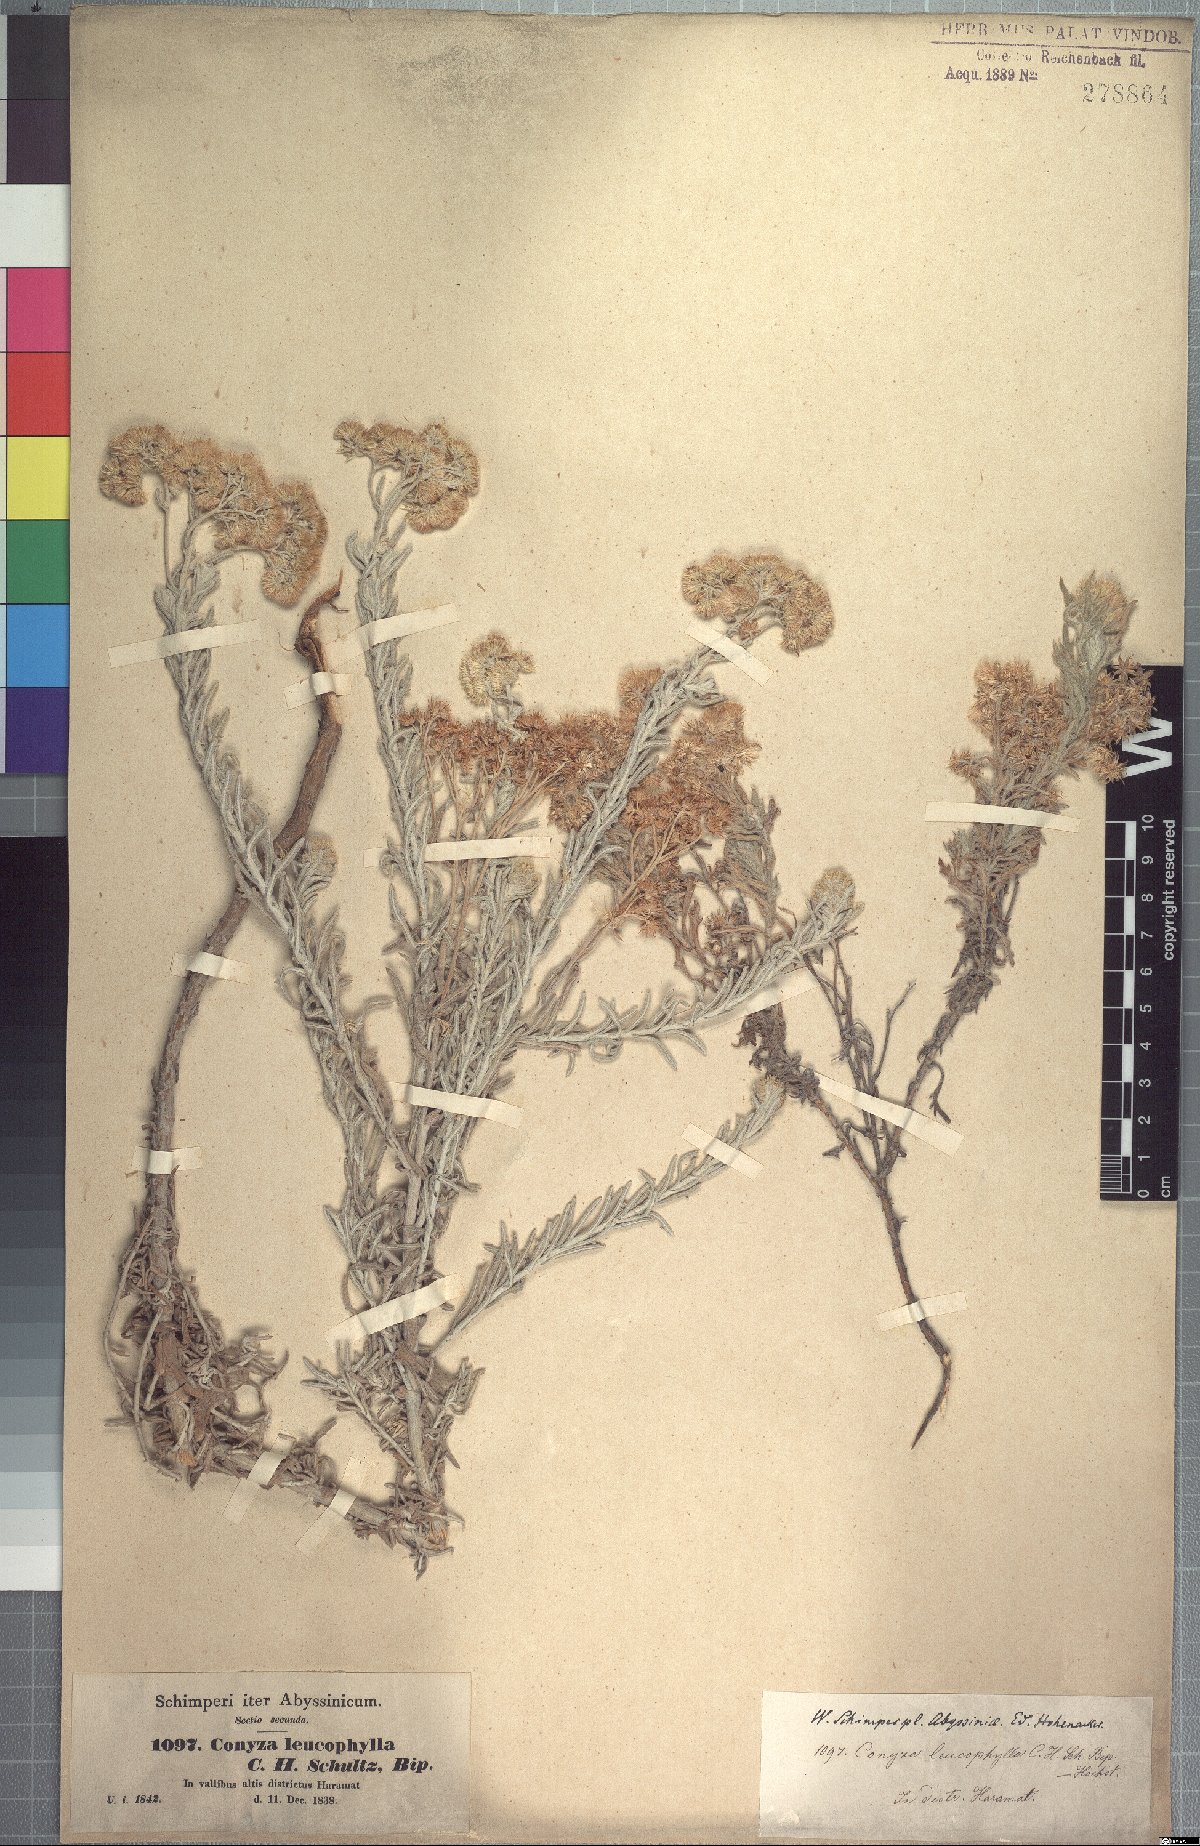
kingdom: Plantae
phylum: Tracheophyta
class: Magnoliopsida
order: Asterales
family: Asteraceae
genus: Conyza
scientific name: Conyza incana
